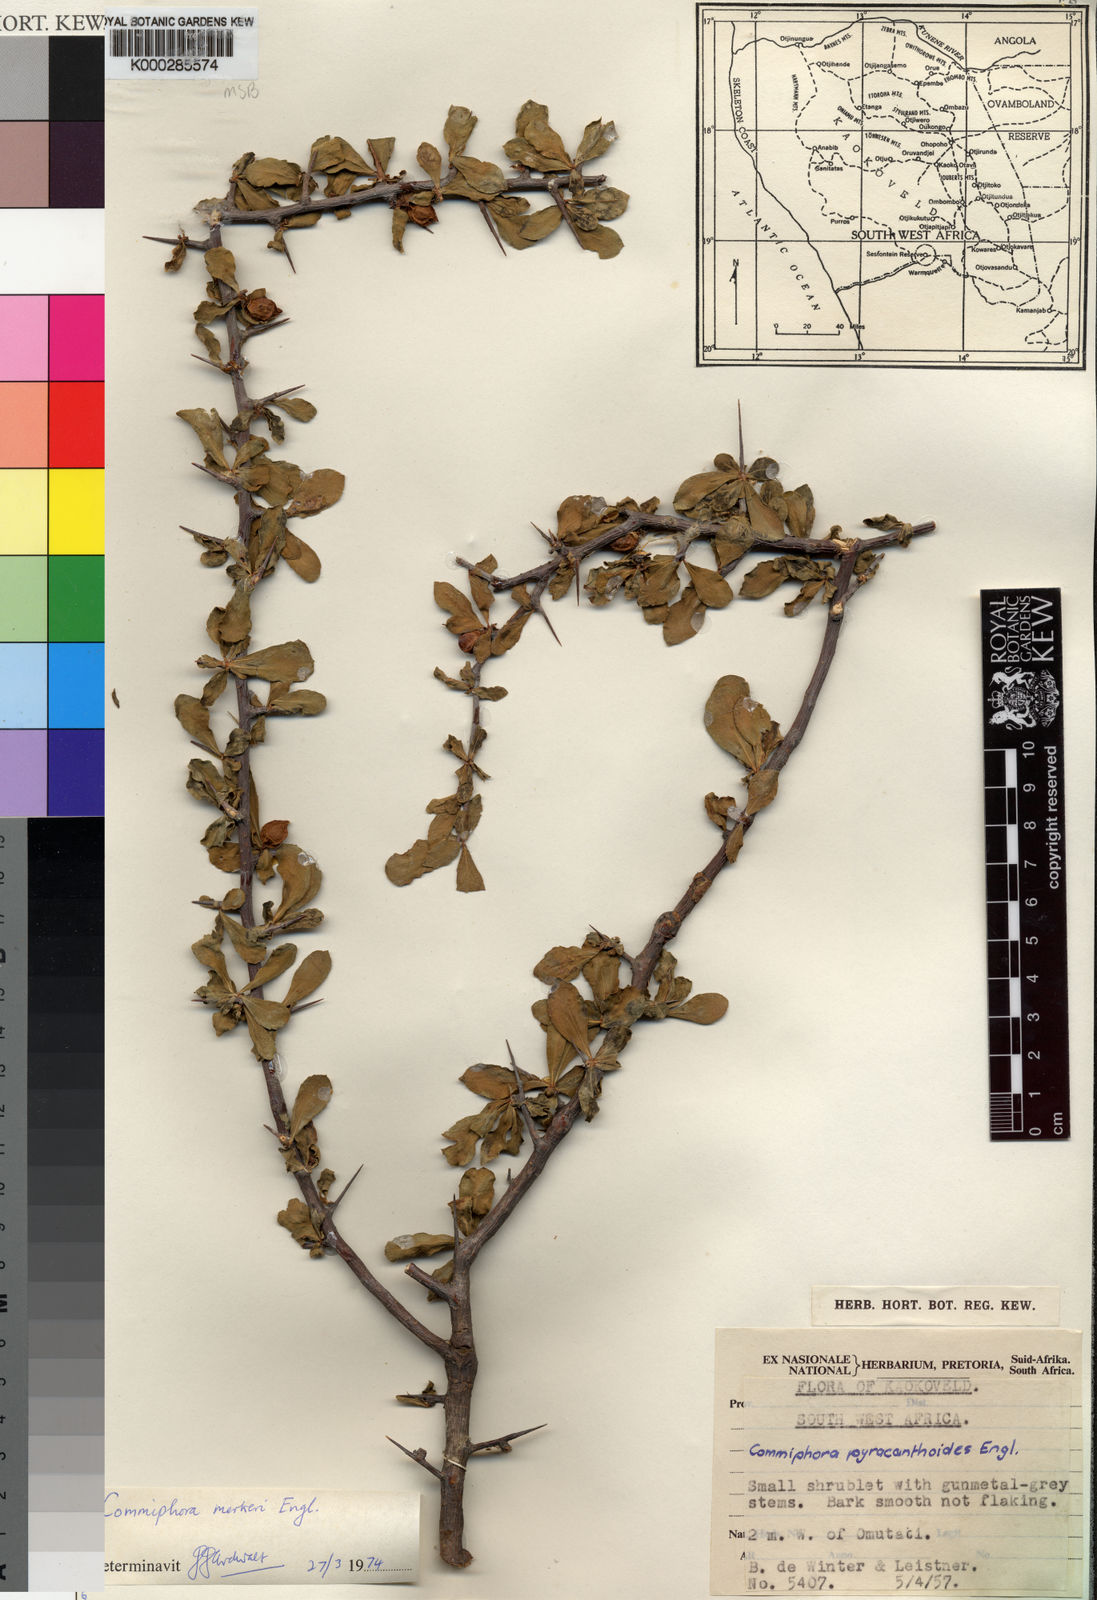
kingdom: Plantae
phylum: Tracheophyta
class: Magnoliopsida
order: Sapindales
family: Burseraceae
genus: Commiphora
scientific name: Commiphora viminea
